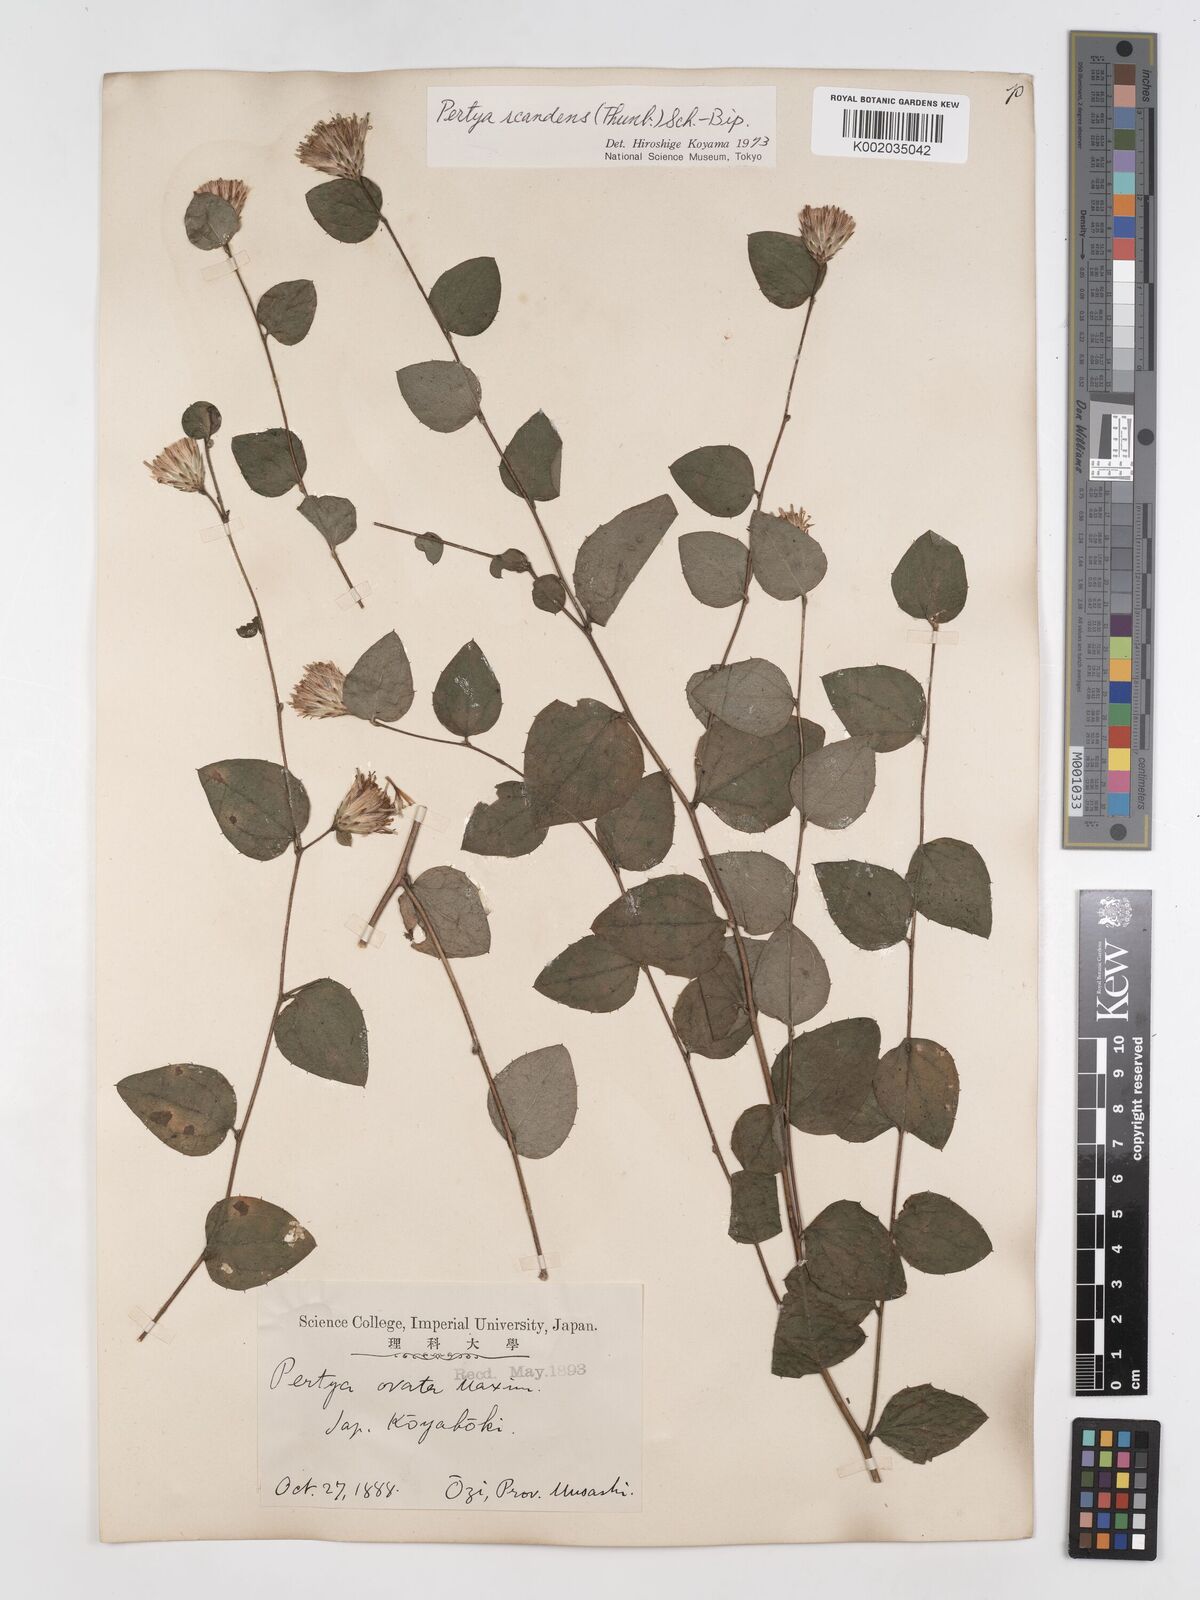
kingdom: Plantae
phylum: Tracheophyta
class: Magnoliopsida
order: Asterales
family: Asteraceae
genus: Pertya
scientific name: Pertya scandens
